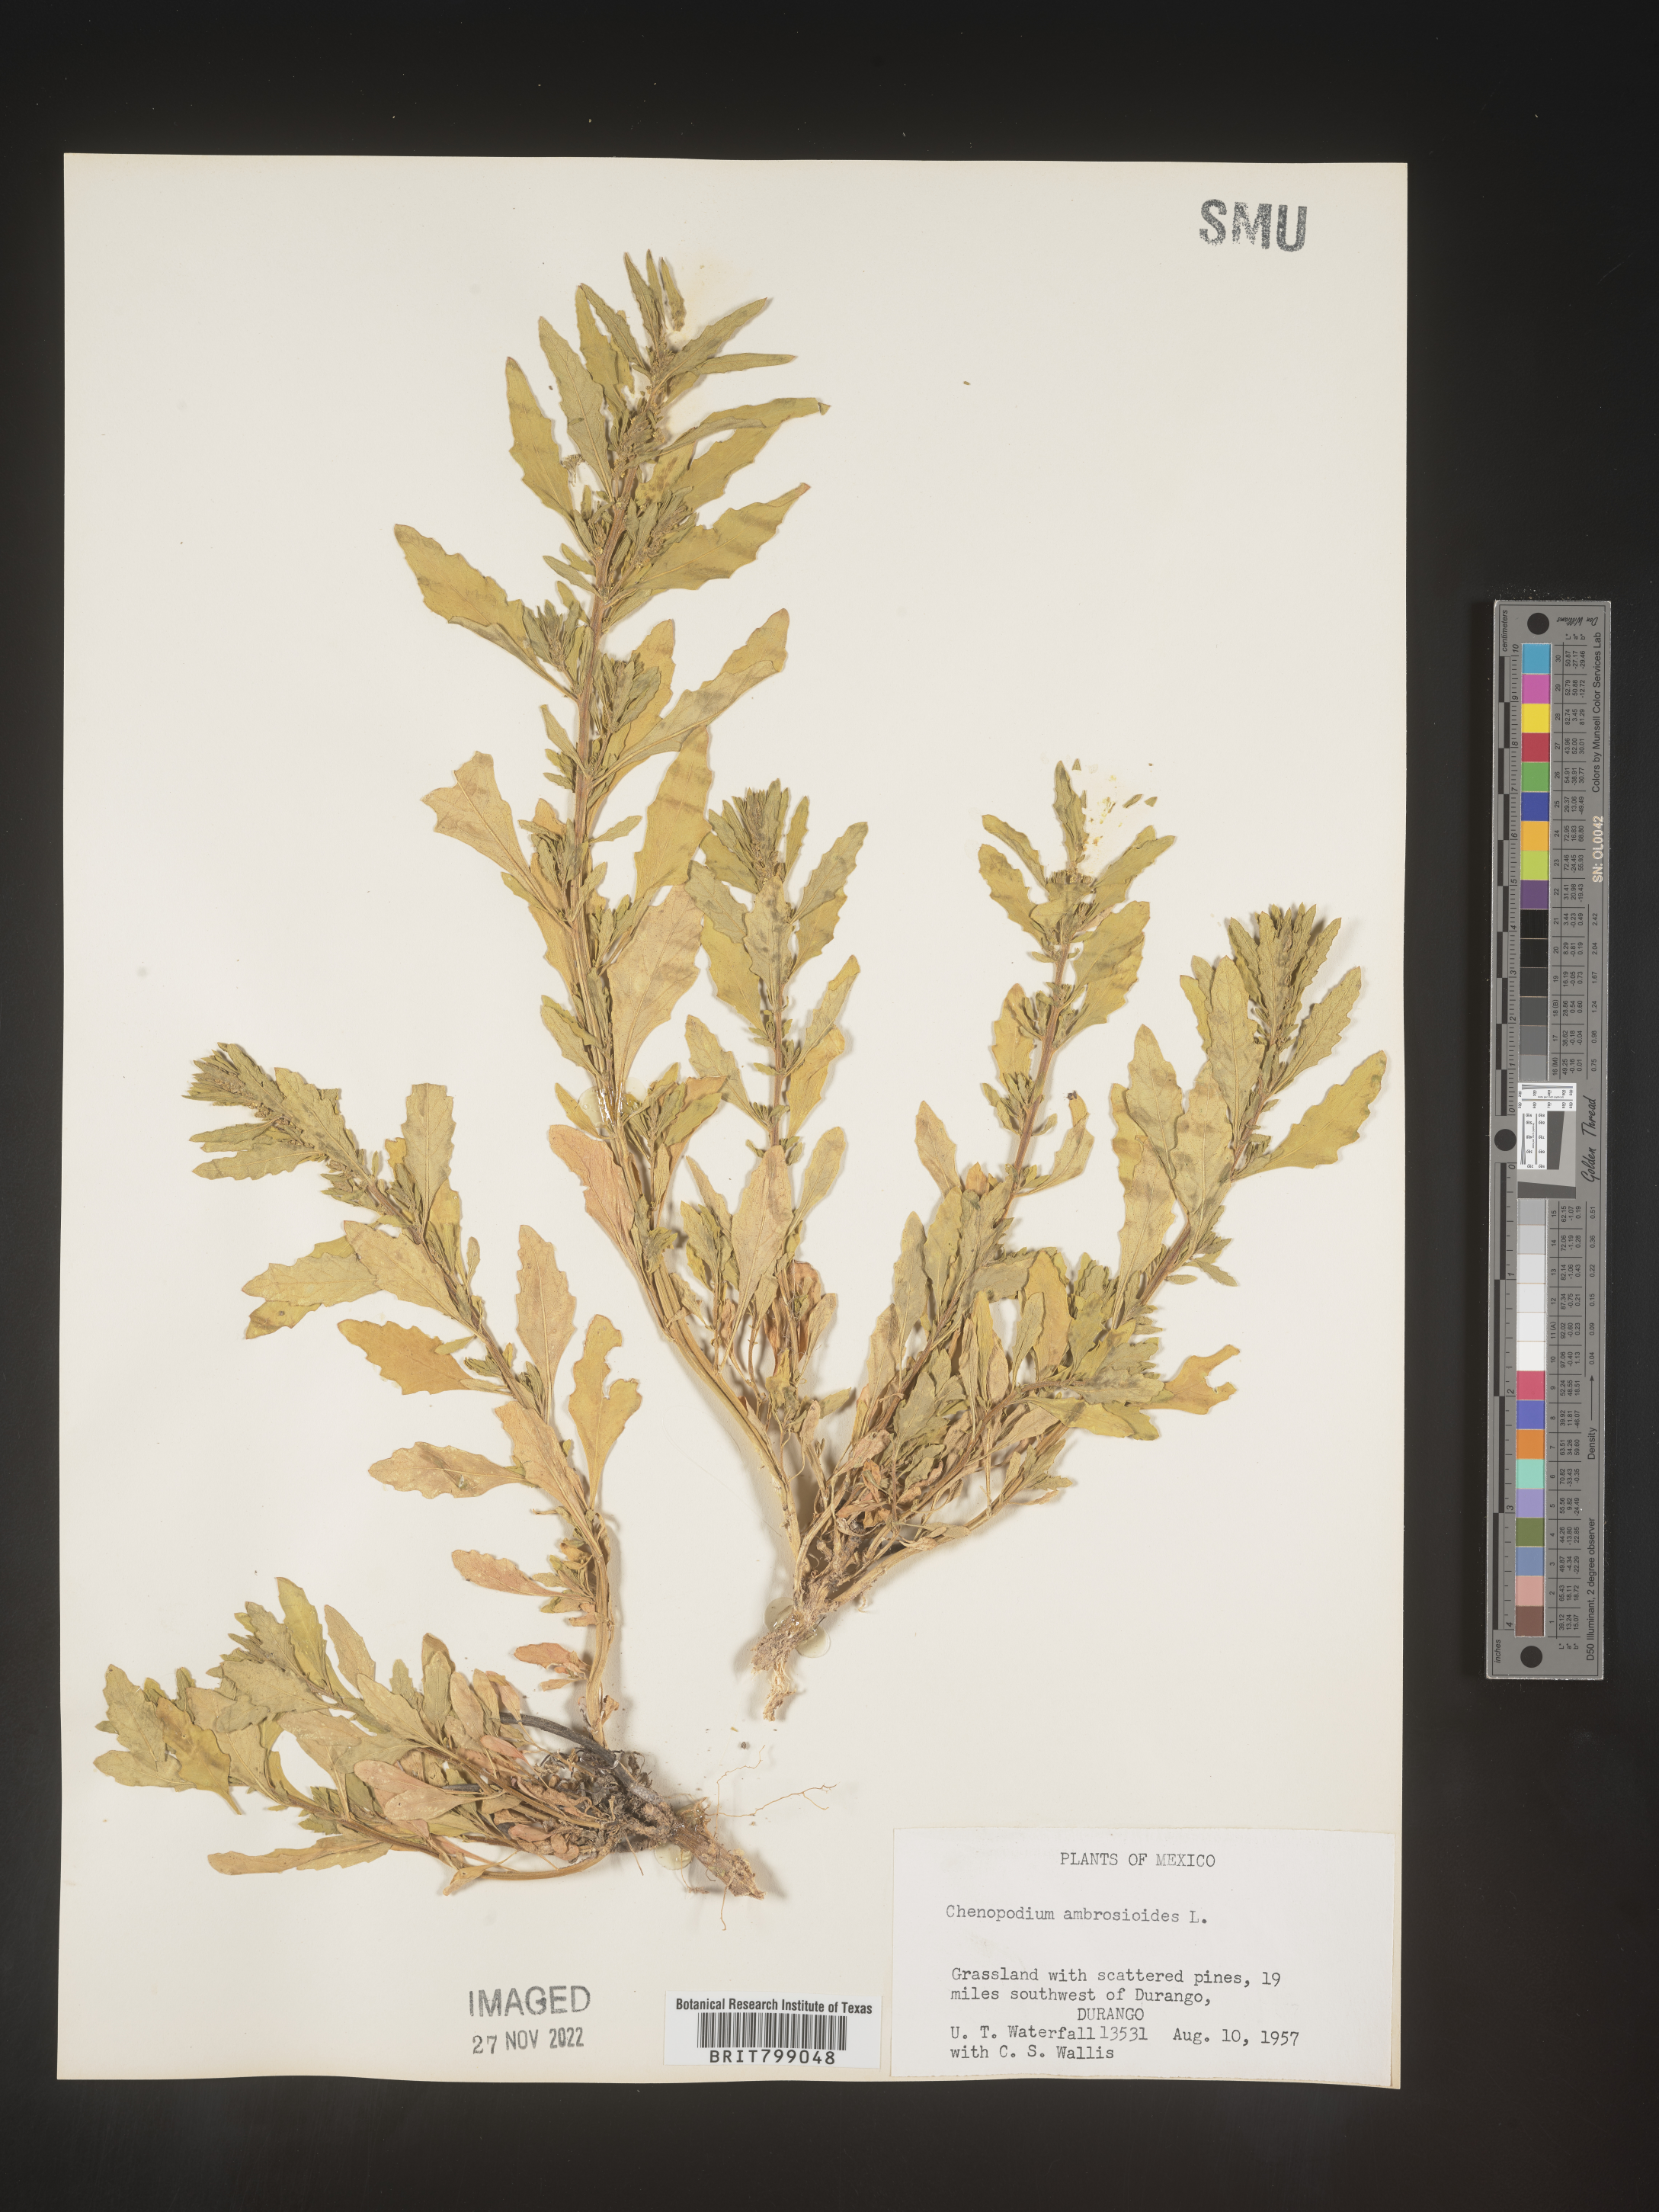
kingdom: Plantae
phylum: Tracheophyta
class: Magnoliopsida
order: Caryophyllales
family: Amaranthaceae
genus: Chenopodium
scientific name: Chenopodium
